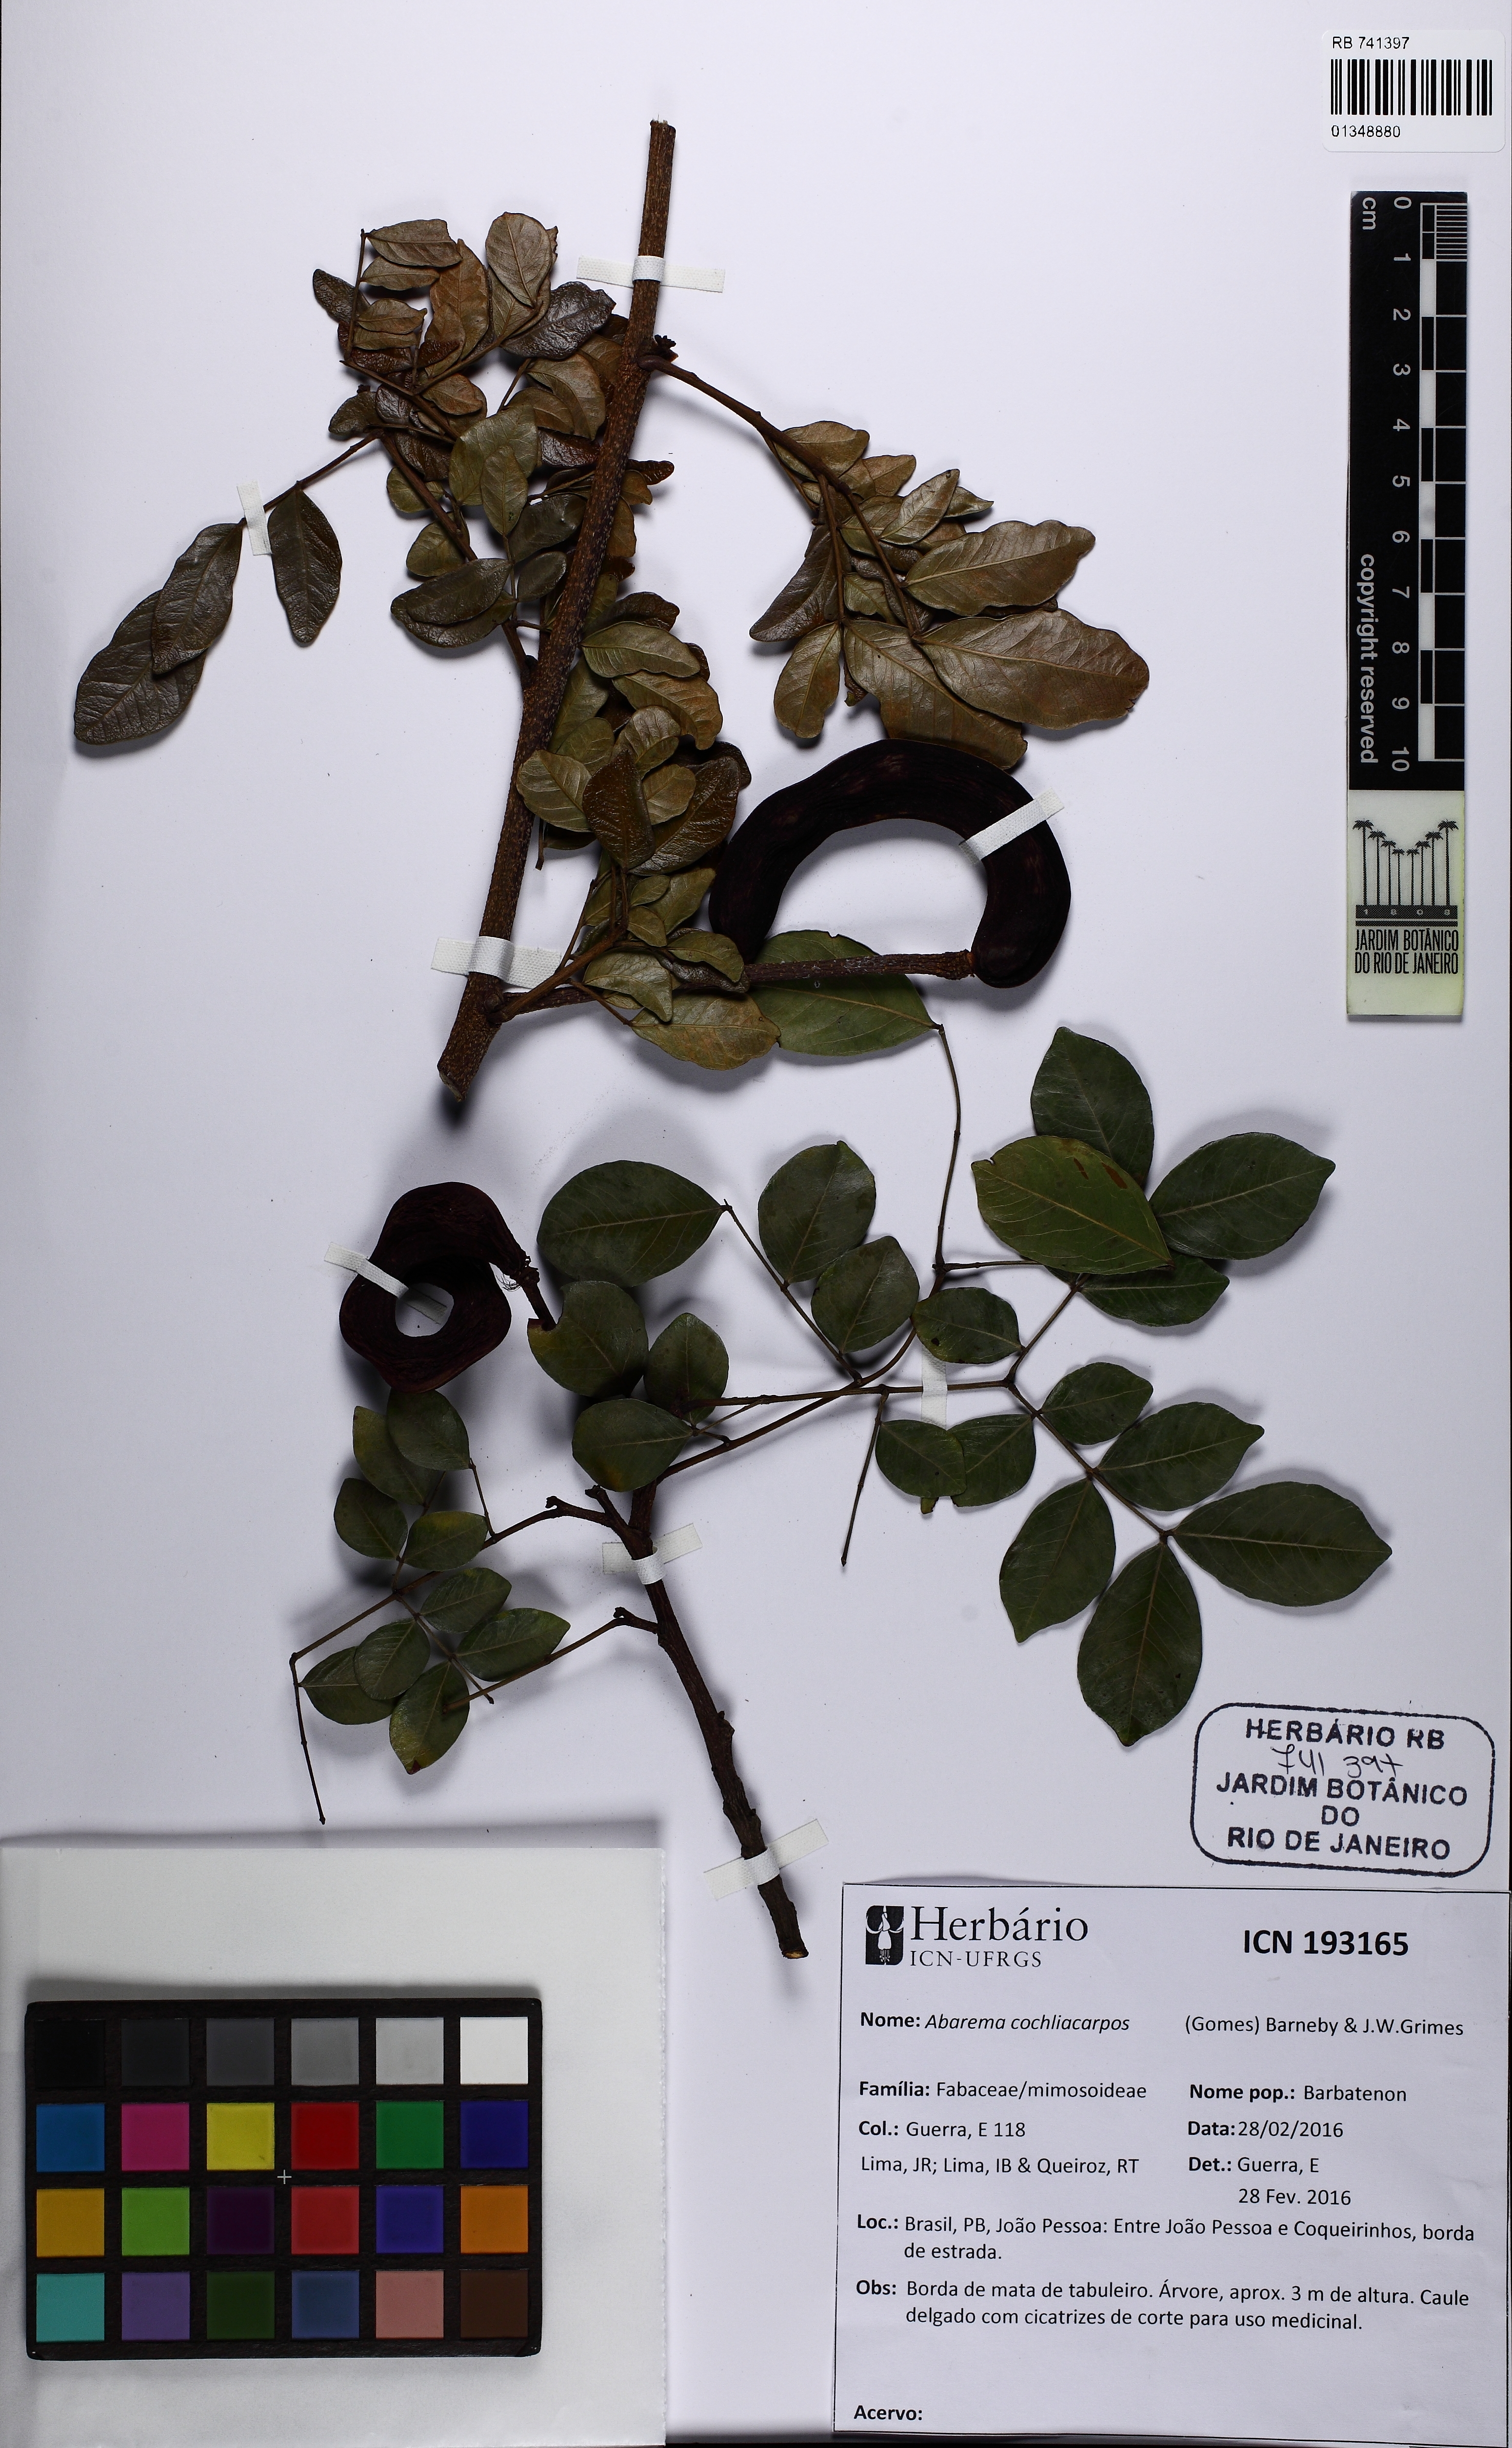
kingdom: Plantae
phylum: Tracheophyta
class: Magnoliopsida
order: Fabales
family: Fabaceae
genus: Abarema
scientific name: Abarema cochliacarpos
